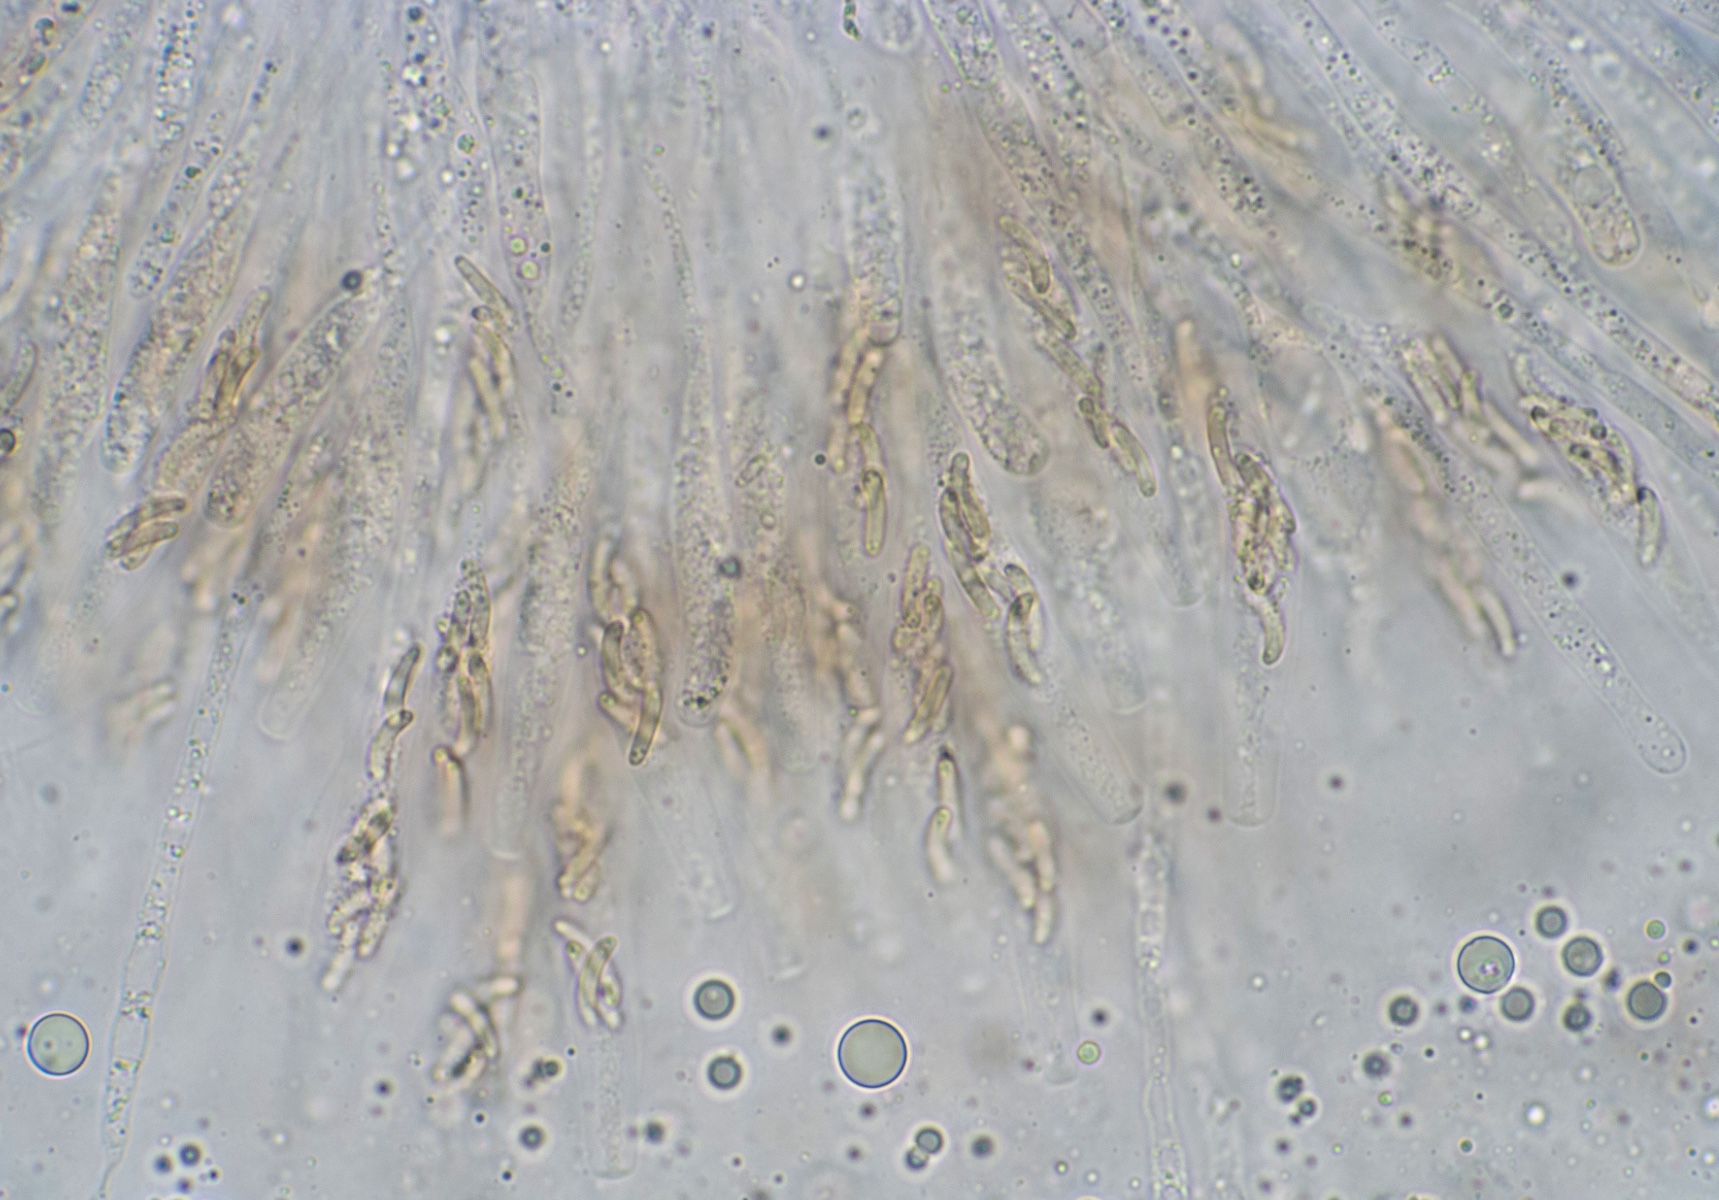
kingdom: Fungi
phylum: Ascomycota
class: Sordariomycetes
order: Xylariales
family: Diatrypaceae
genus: Eutypella
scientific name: Eutypella stellulata
